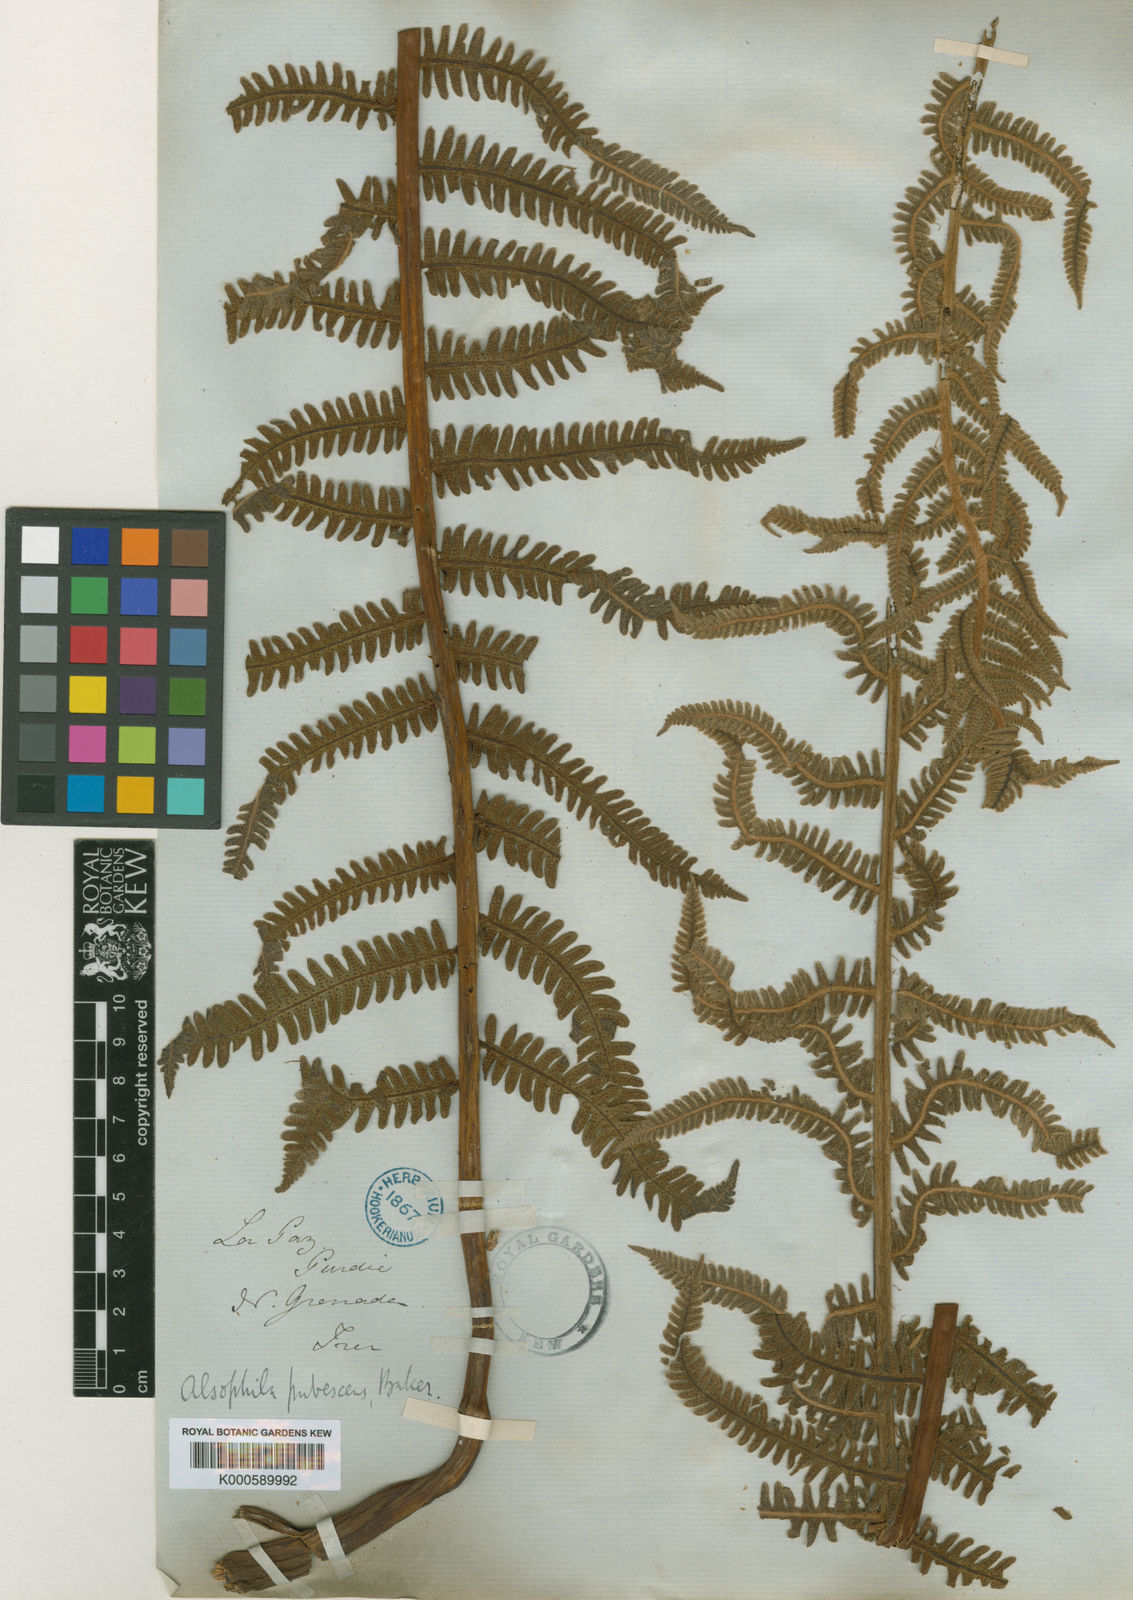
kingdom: Plantae
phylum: Tracheophyta
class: Polypodiopsida
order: Cyatheales
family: Cyatheaceae
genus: Alsophila
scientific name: Alsophila auneae
